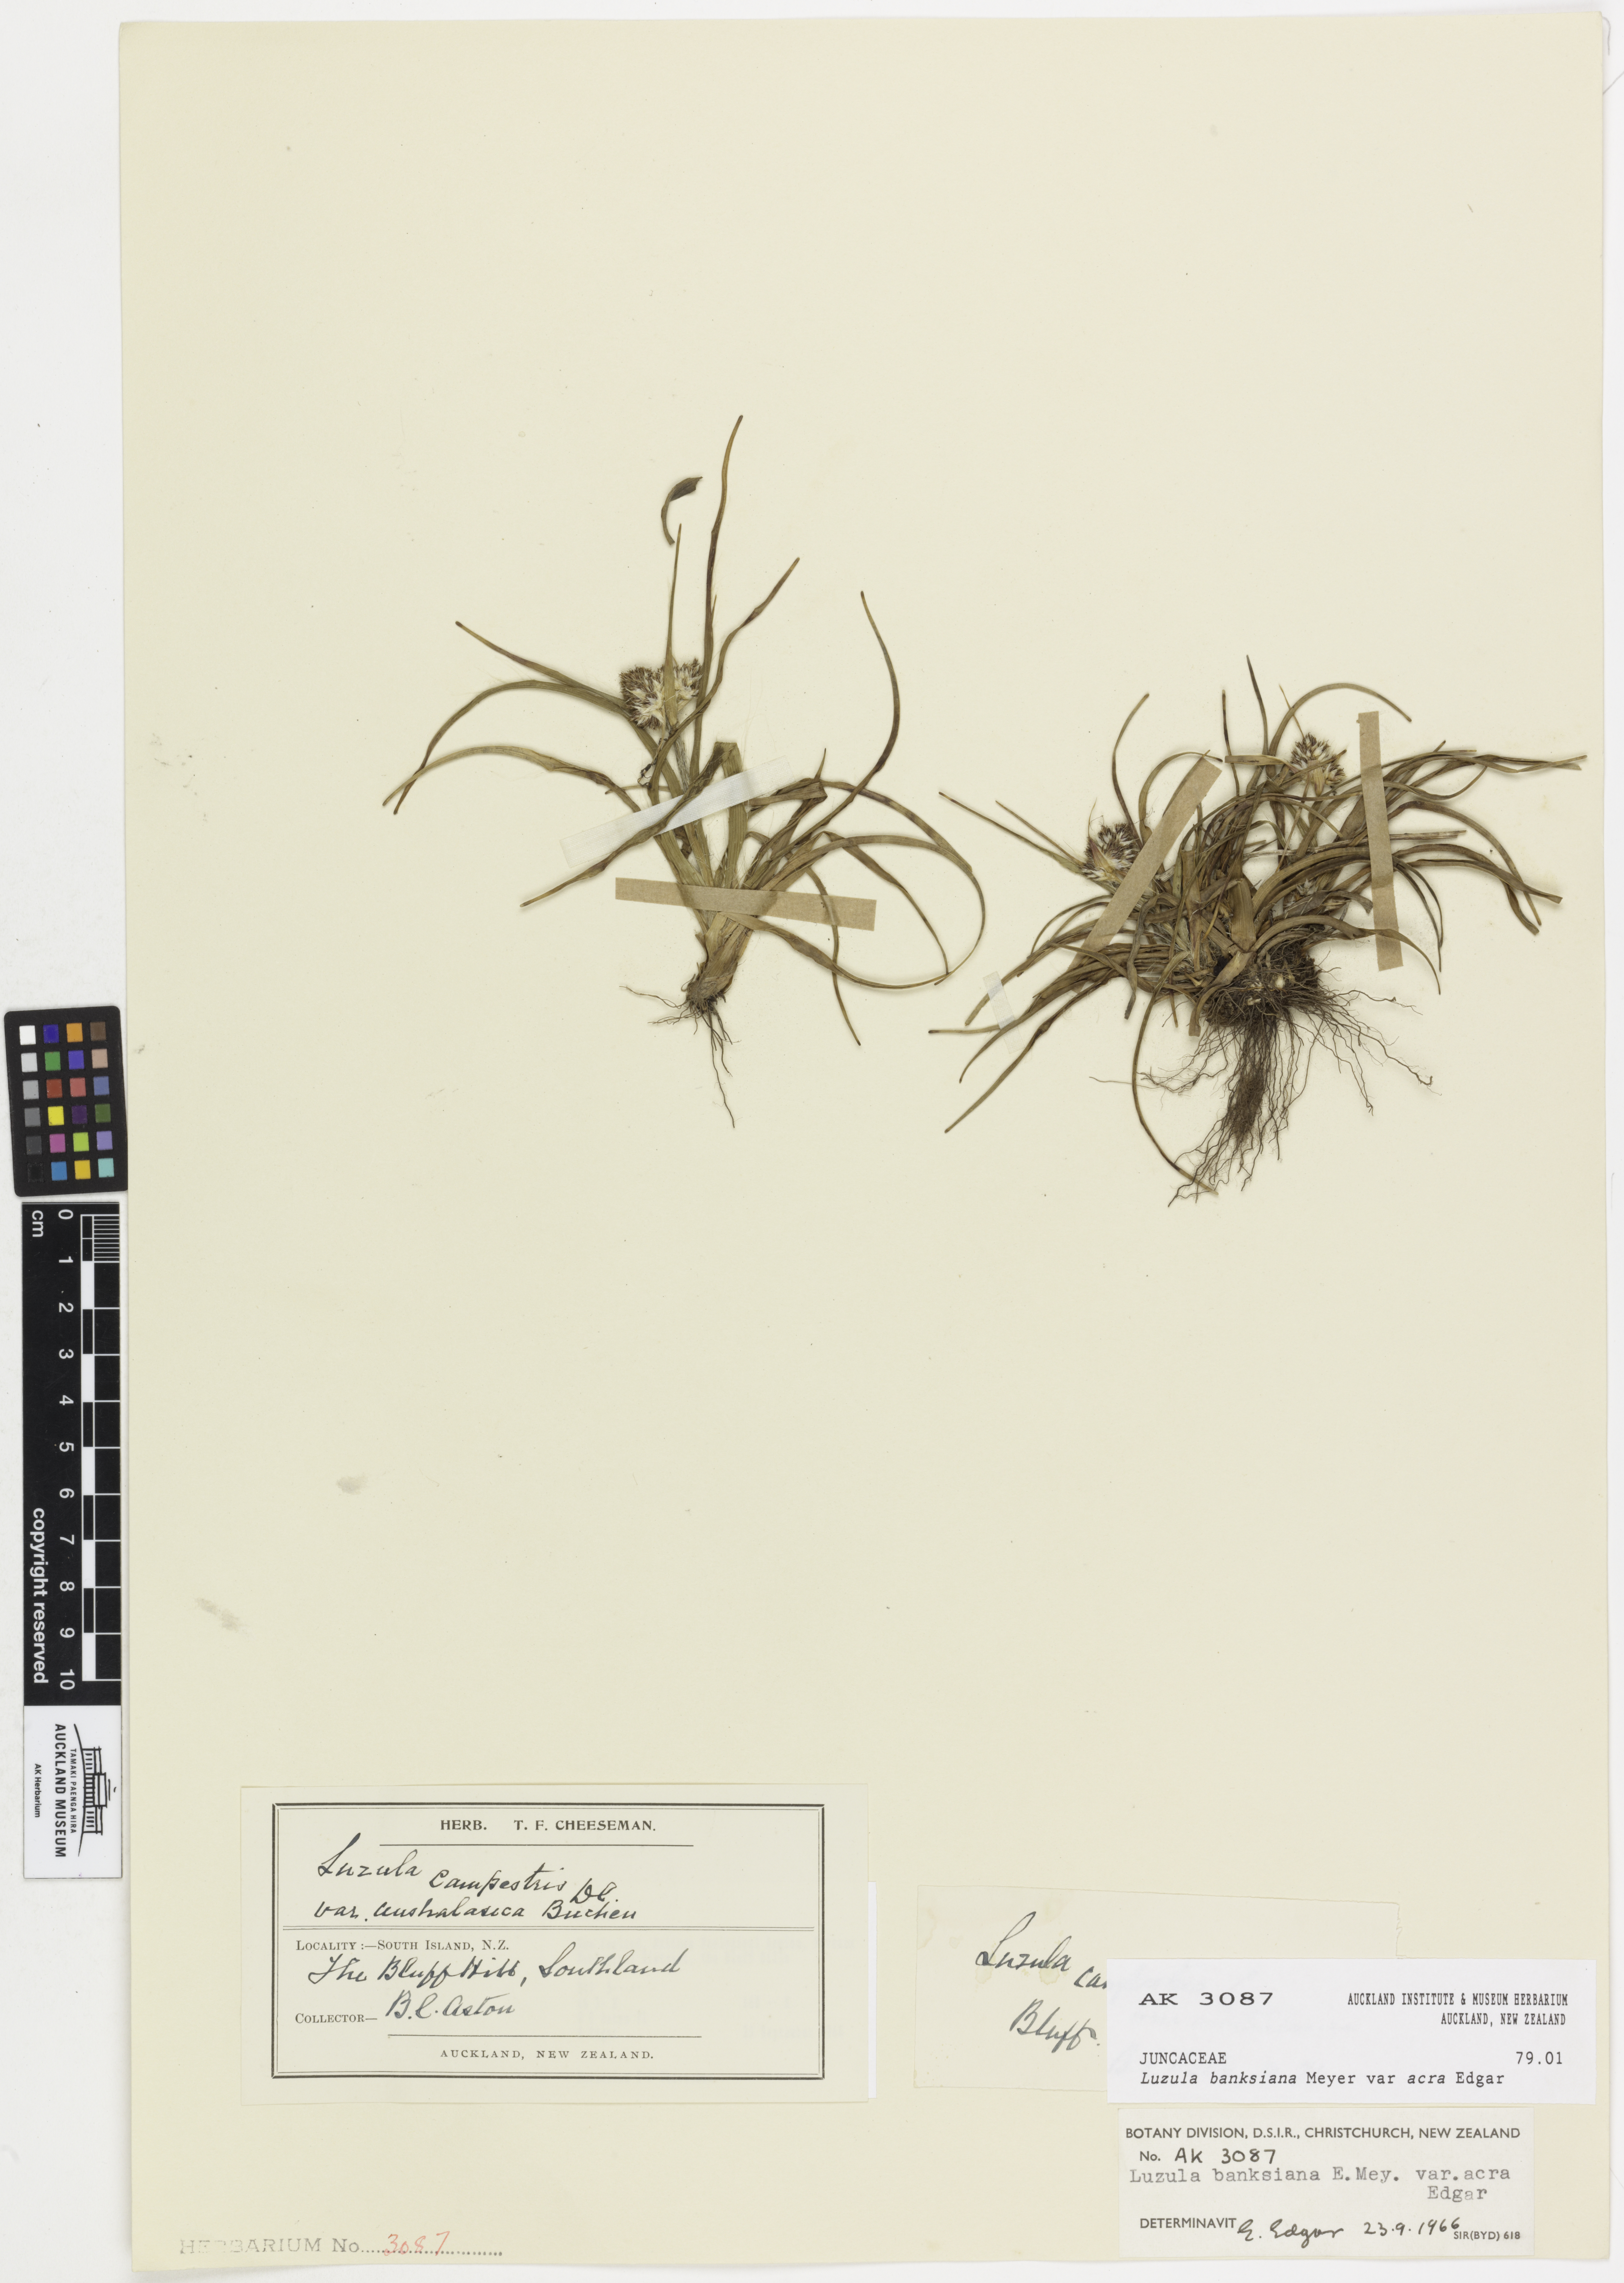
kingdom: Plantae
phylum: Tracheophyta
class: Liliopsida
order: Poales
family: Juncaceae
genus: Luzula
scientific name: Luzula banksiana
